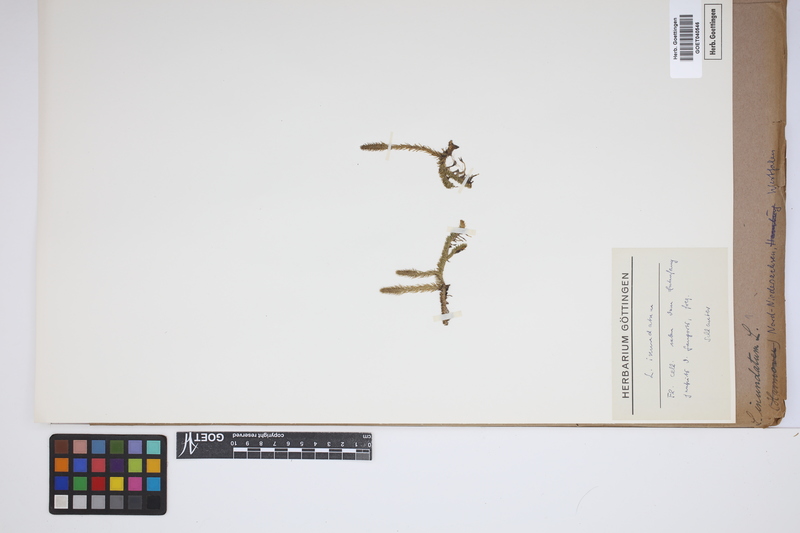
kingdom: Plantae
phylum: Tracheophyta
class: Lycopodiopsida
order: Lycopodiales
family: Lycopodiaceae
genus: Lycopodiella
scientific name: Lycopodiella inundata
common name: Marsh clubmoss
